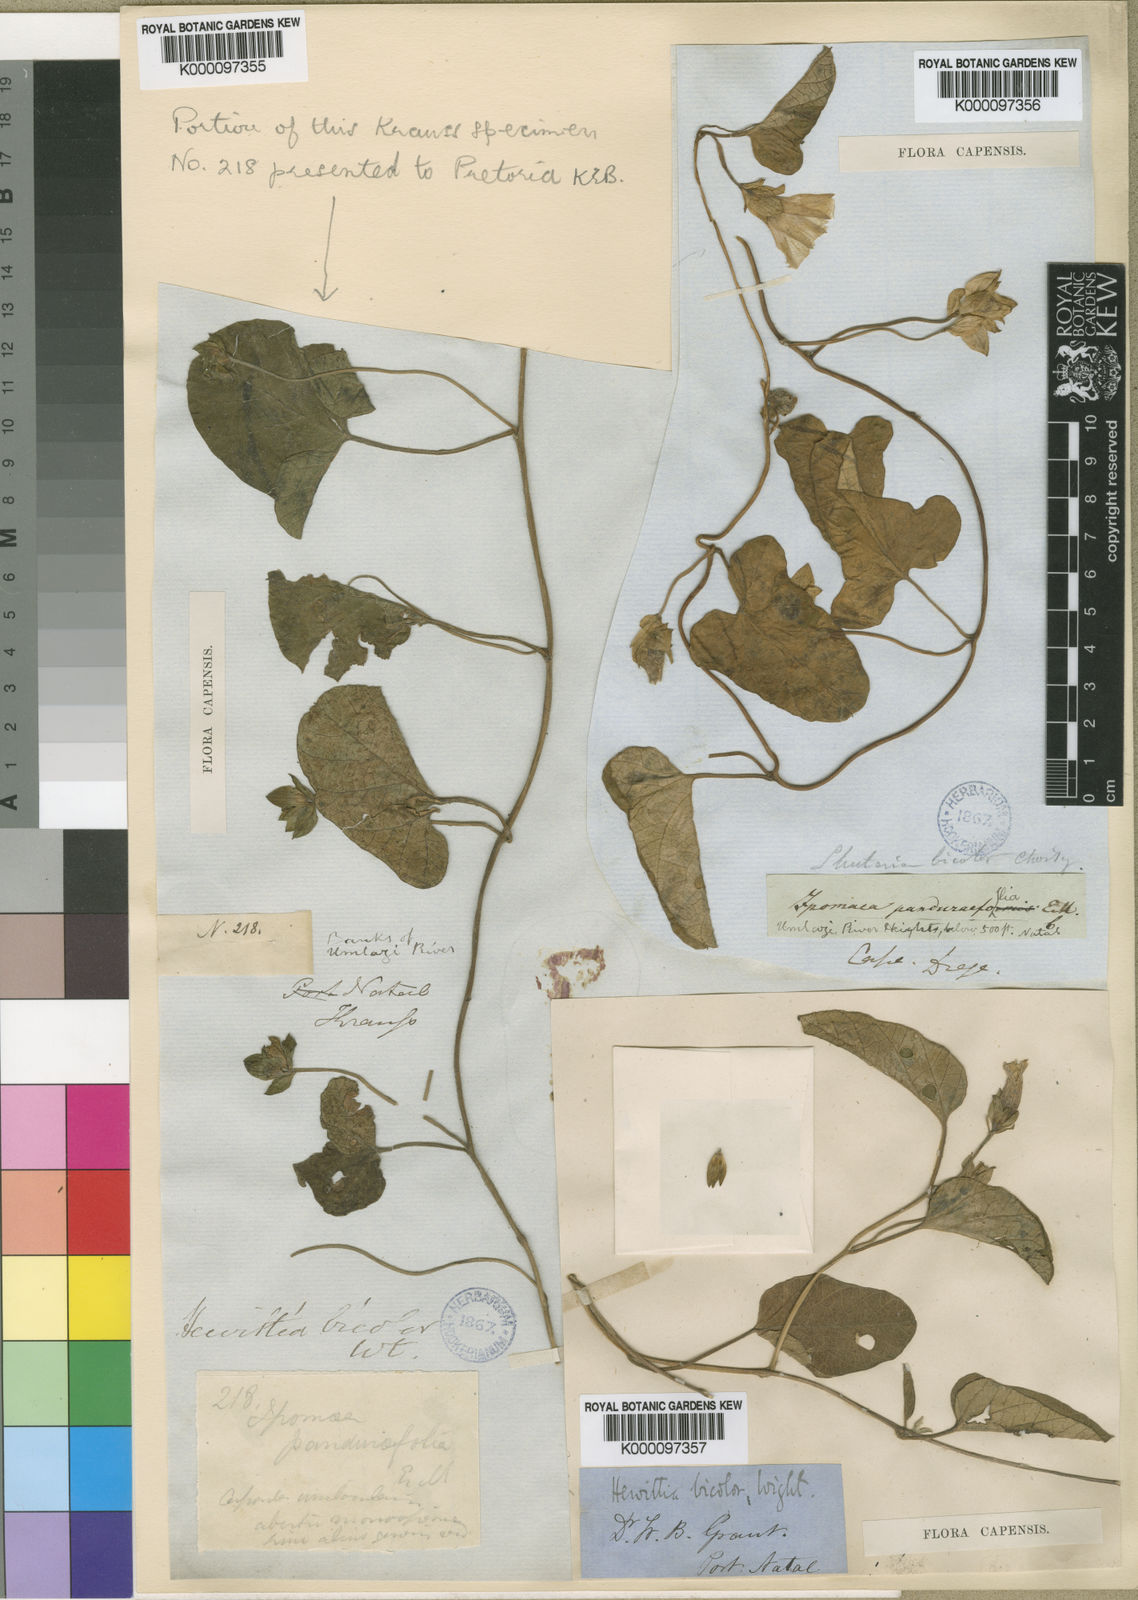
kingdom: Plantae
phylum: Tracheophyta
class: Magnoliopsida
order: Solanales
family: Convolvulaceae
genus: Hewittia
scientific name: Hewittia malabarica
